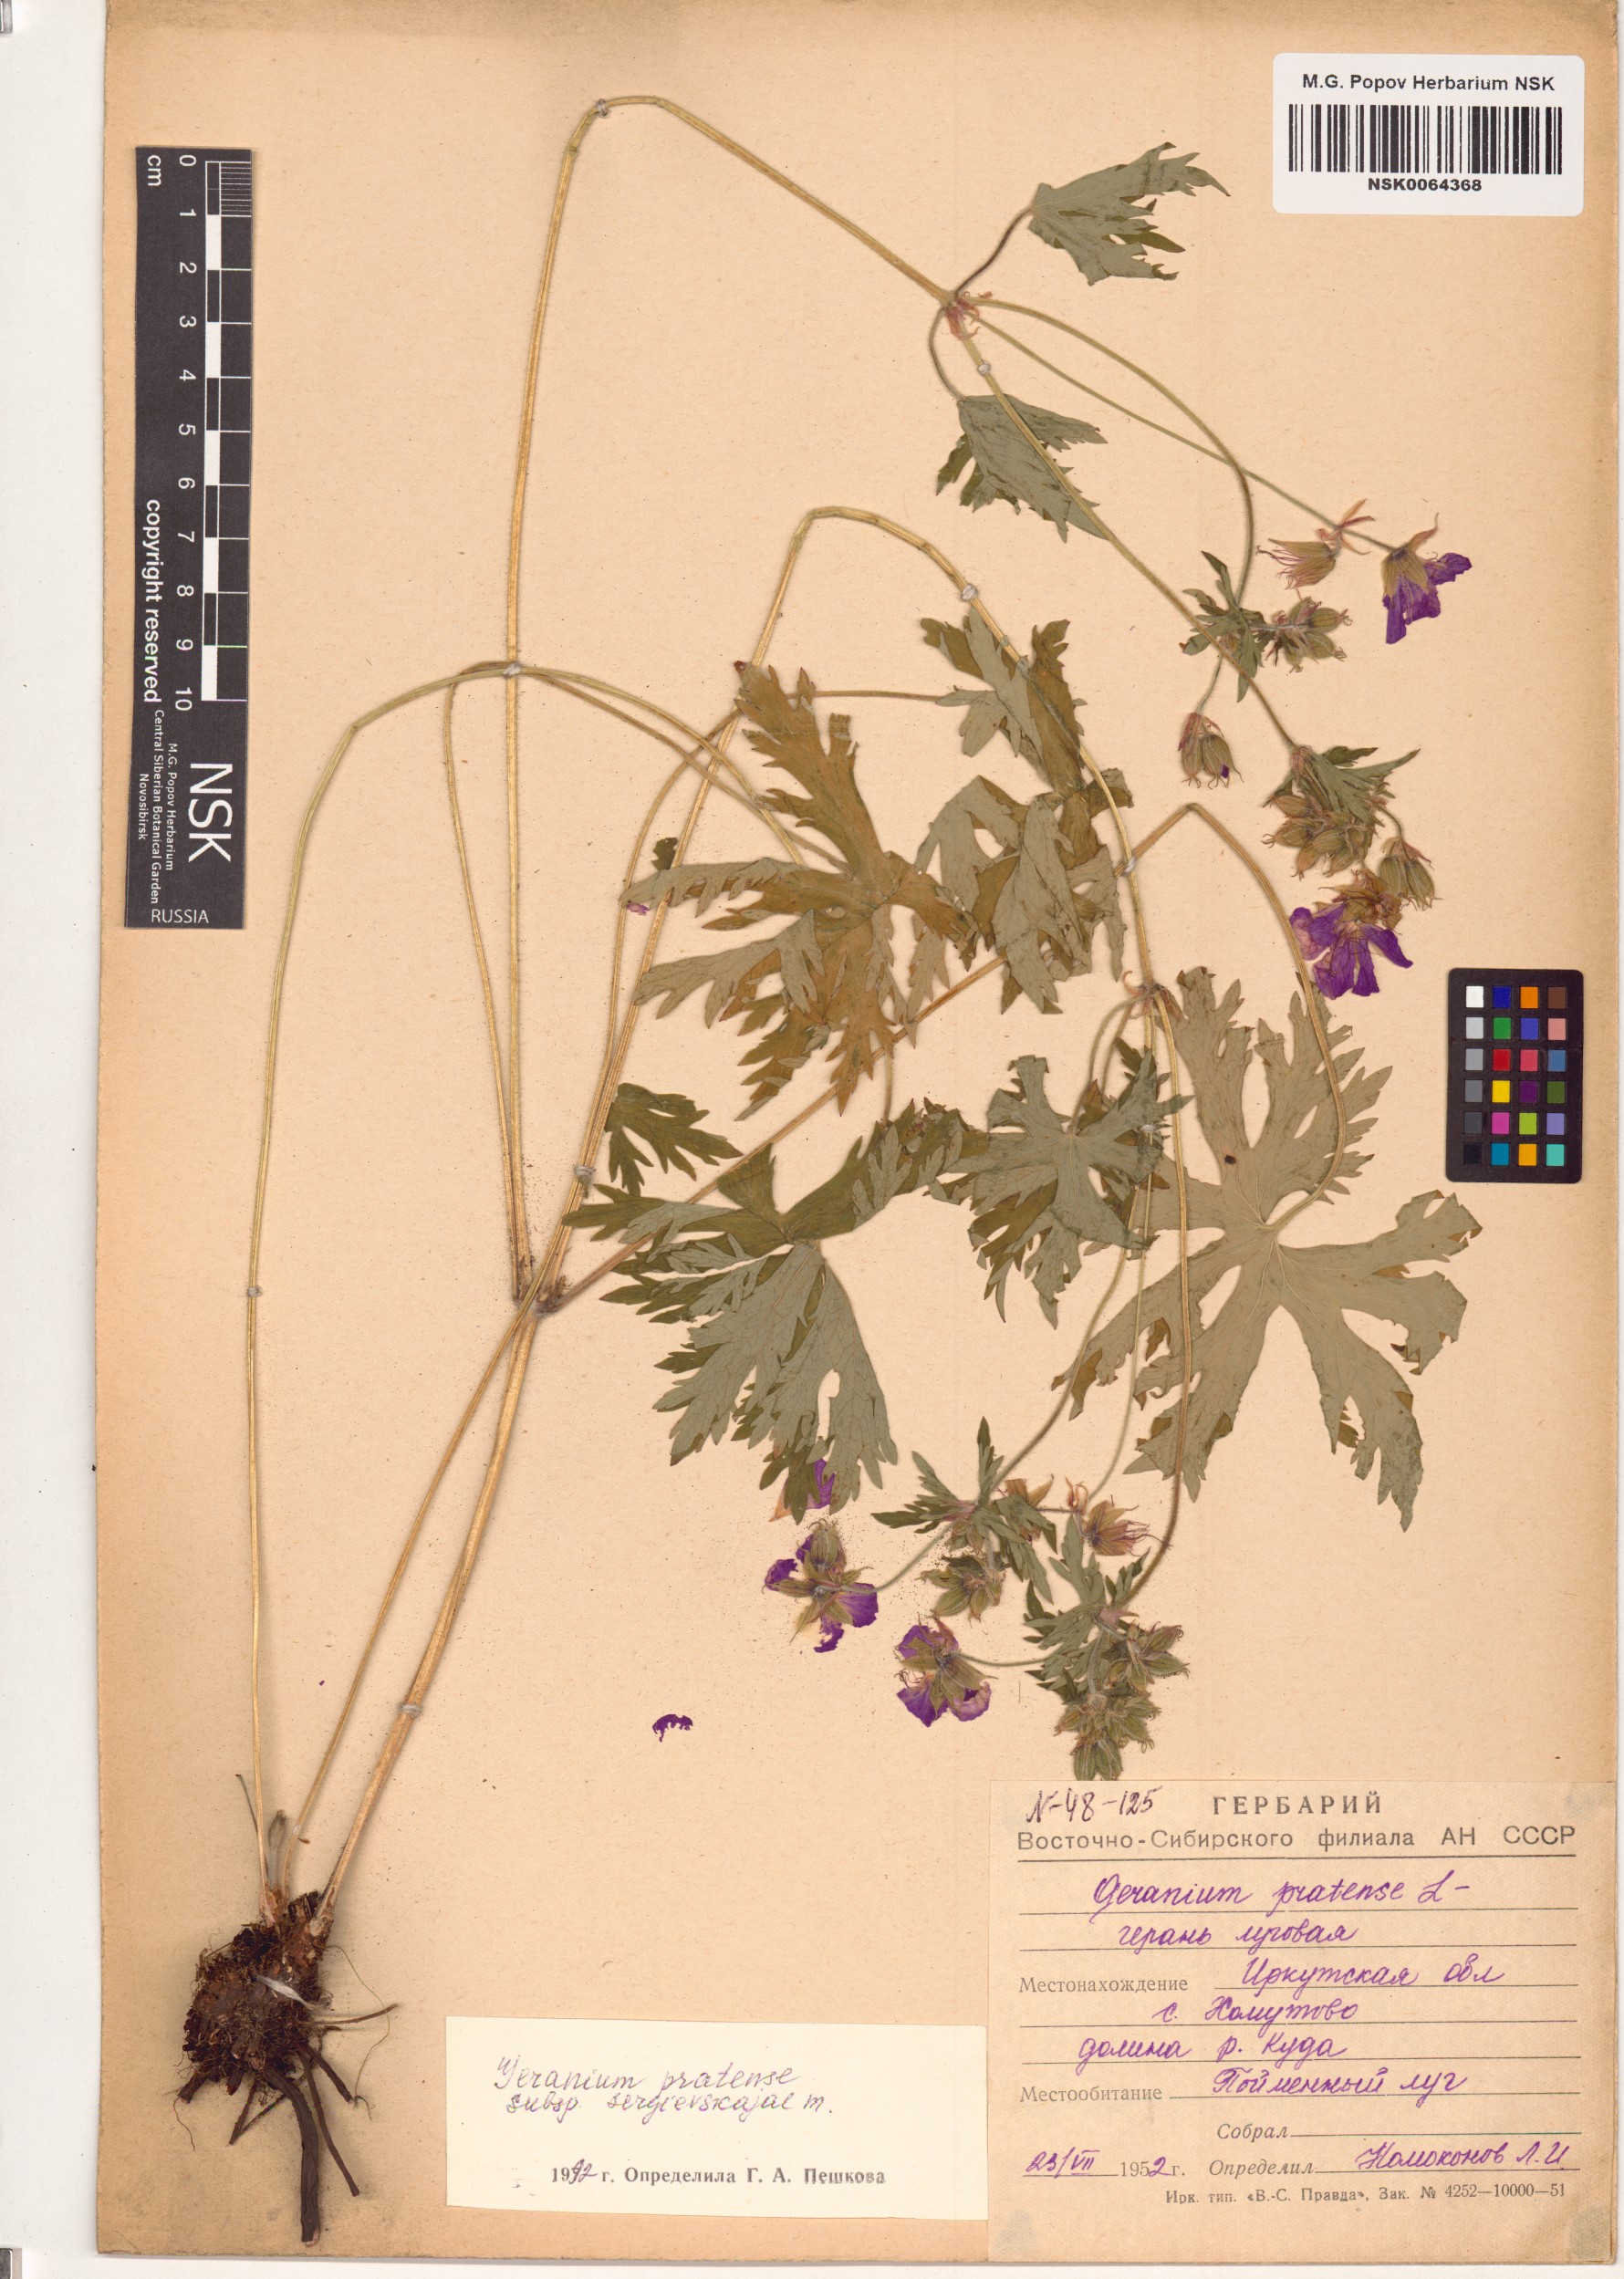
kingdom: Plantae
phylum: Tracheophyta
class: Magnoliopsida
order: Geraniales
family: Geraniaceae
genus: Geranium
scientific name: Geranium pratense
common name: Meadow crane's-bill
